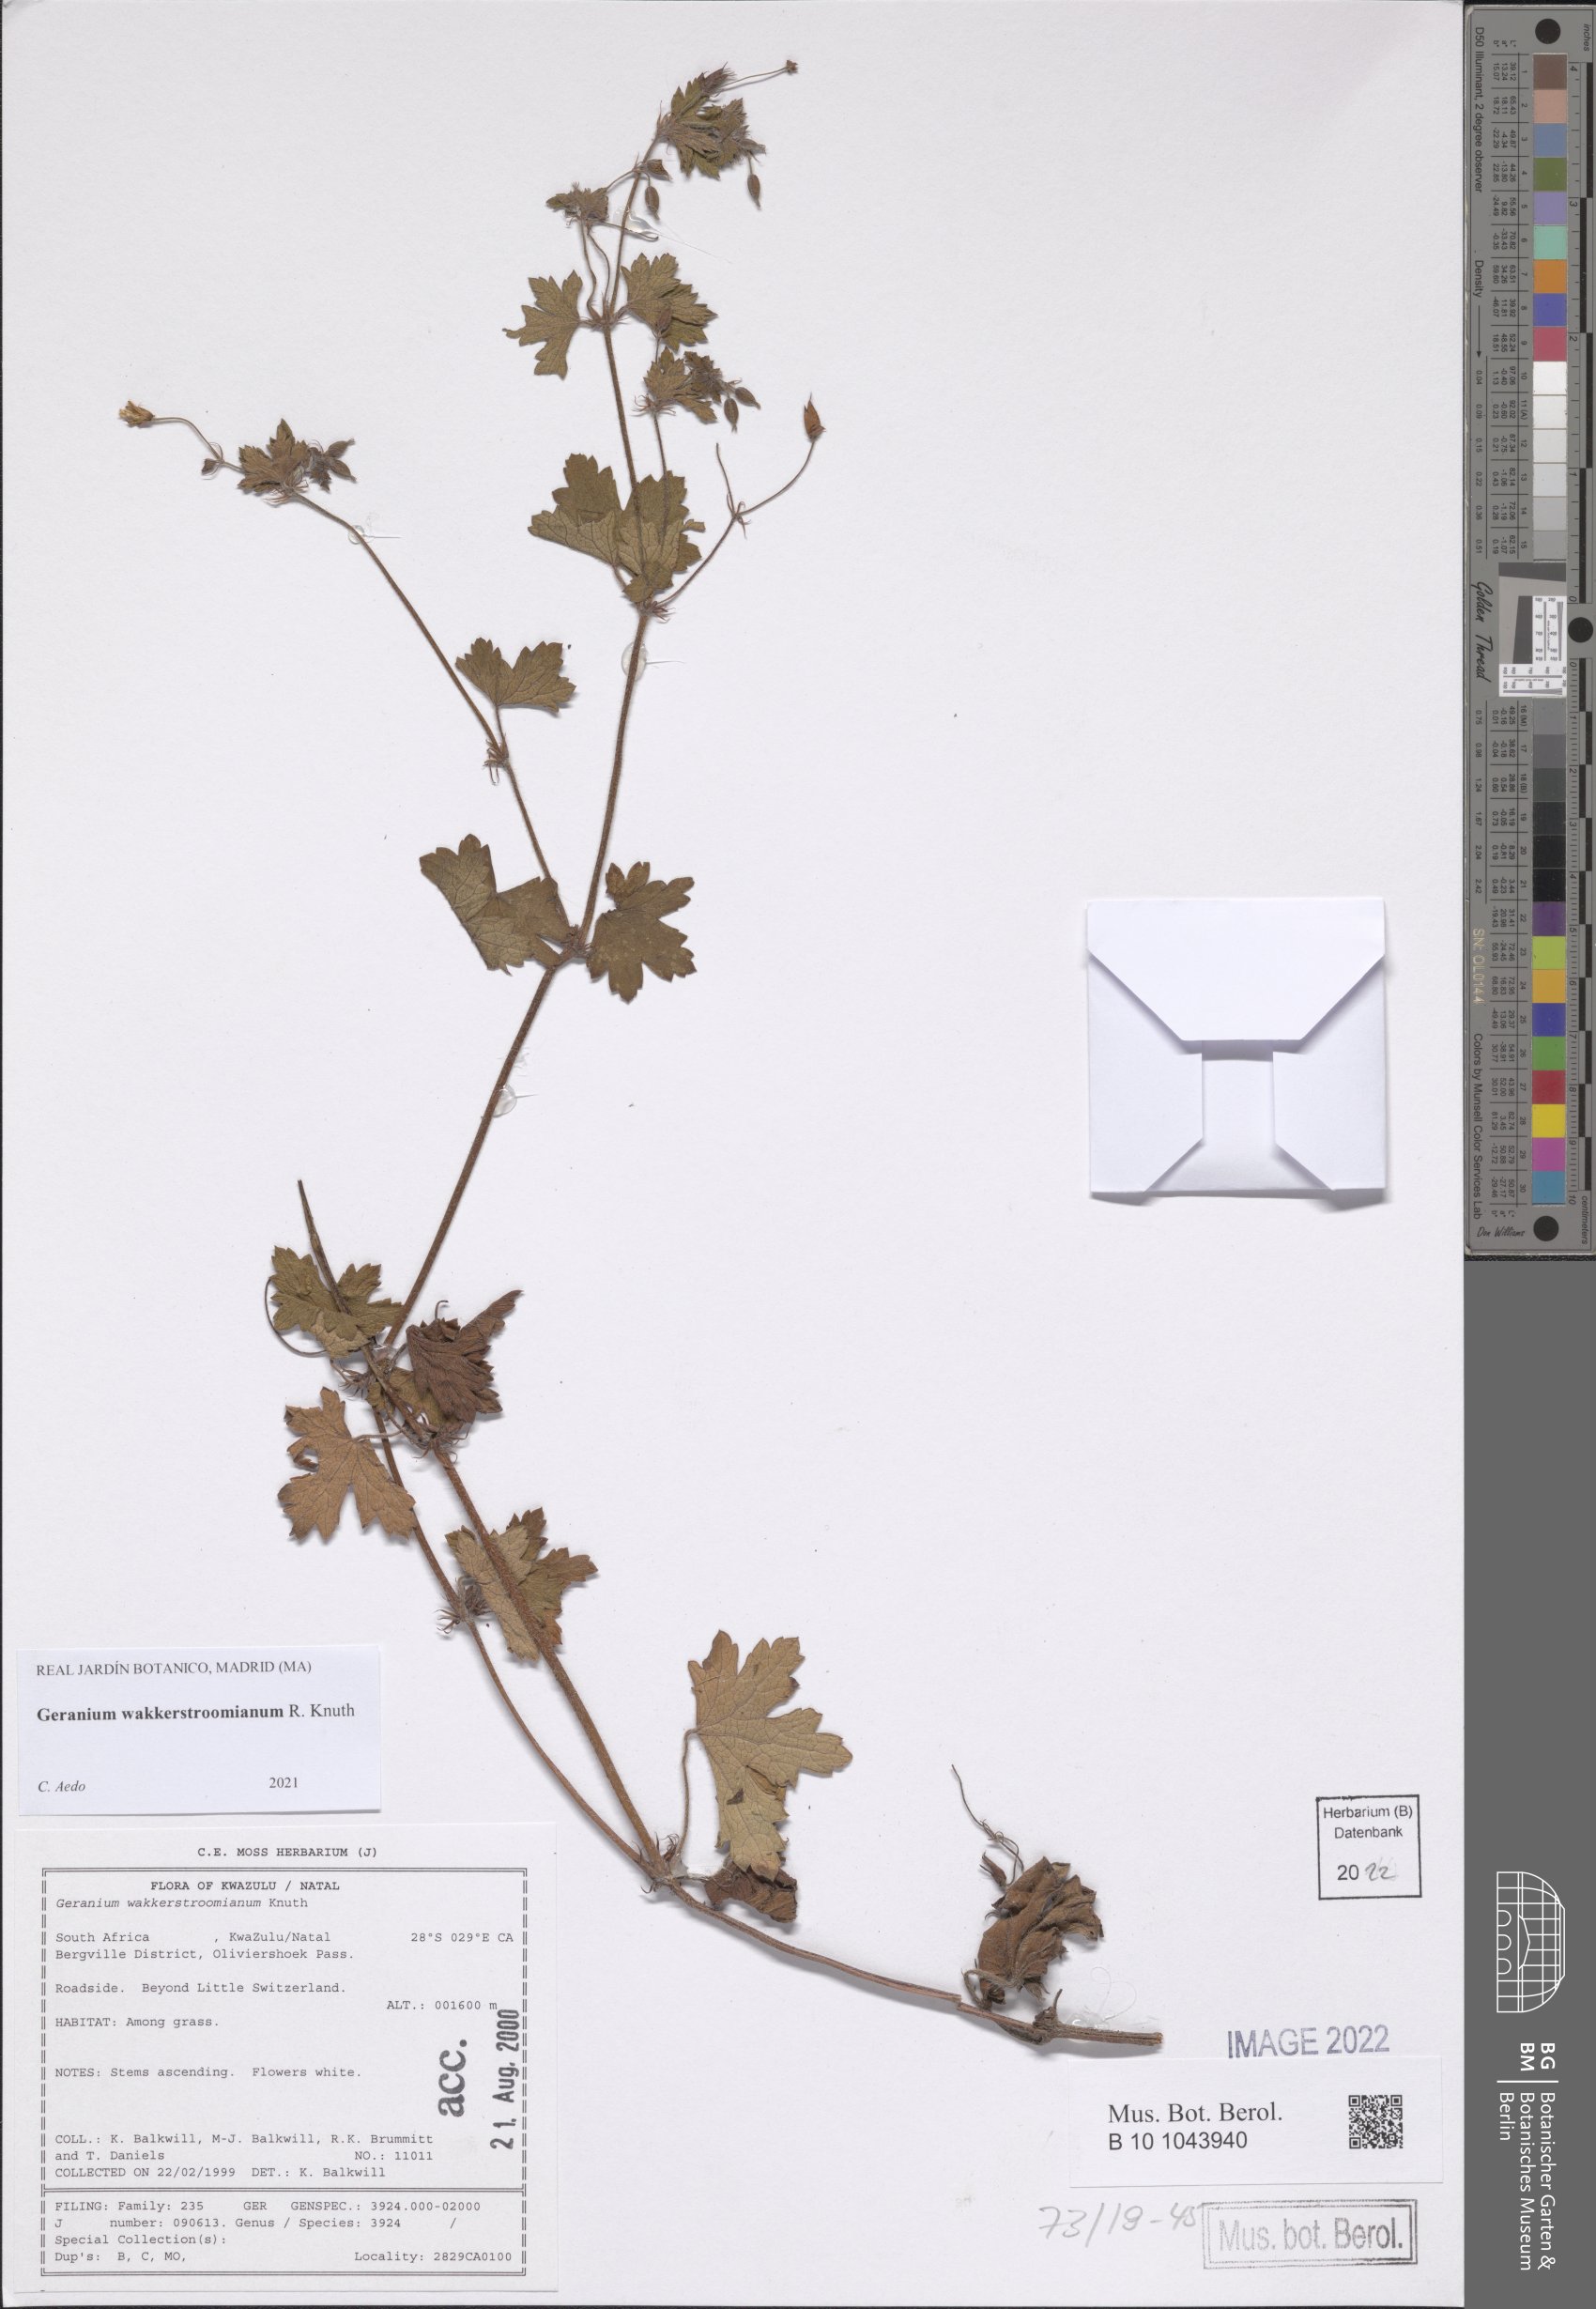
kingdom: Plantae
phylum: Tracheophyta
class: Magnoliopsida
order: Geraniales
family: Geraniaceae
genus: Geranium
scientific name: Geranium wakkerstroomianum
